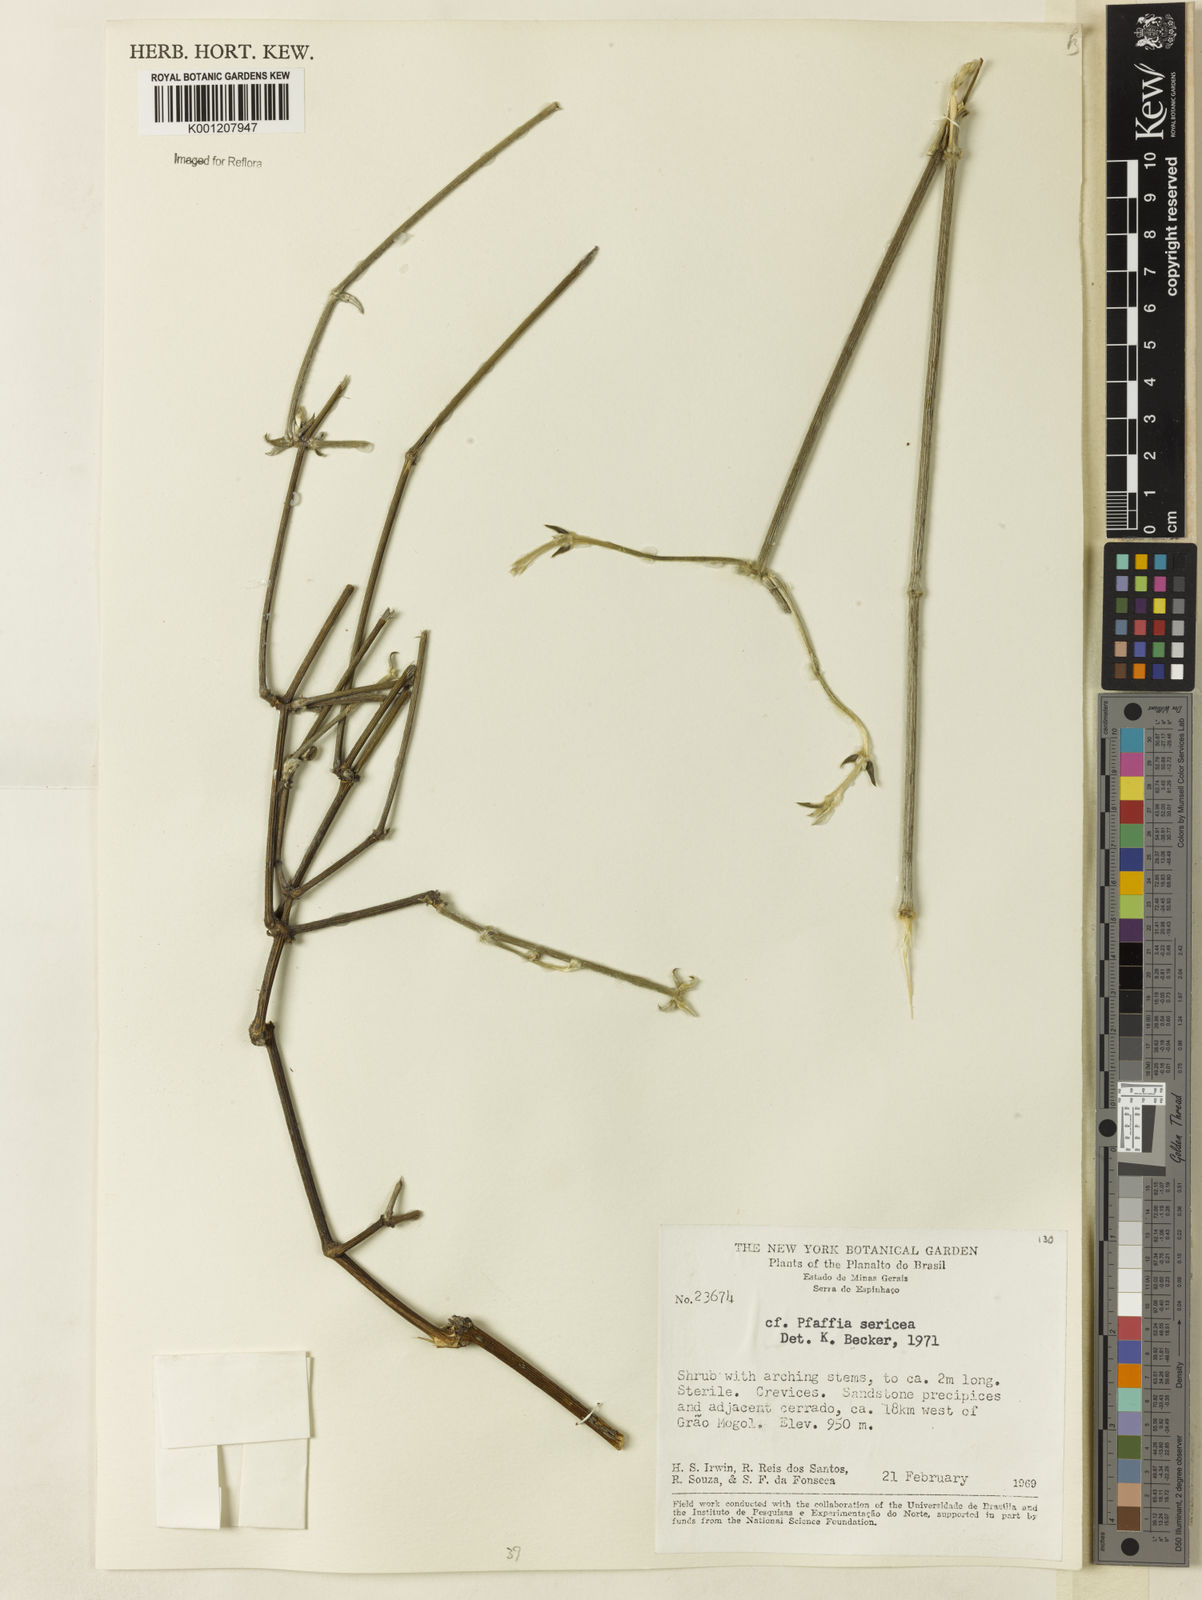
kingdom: Plantae
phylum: Tracheophyta
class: Magnoliopsida
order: Caryophyllales
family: Amaranthaceae
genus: Pfaffia
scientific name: Pfaffia tuberosa
